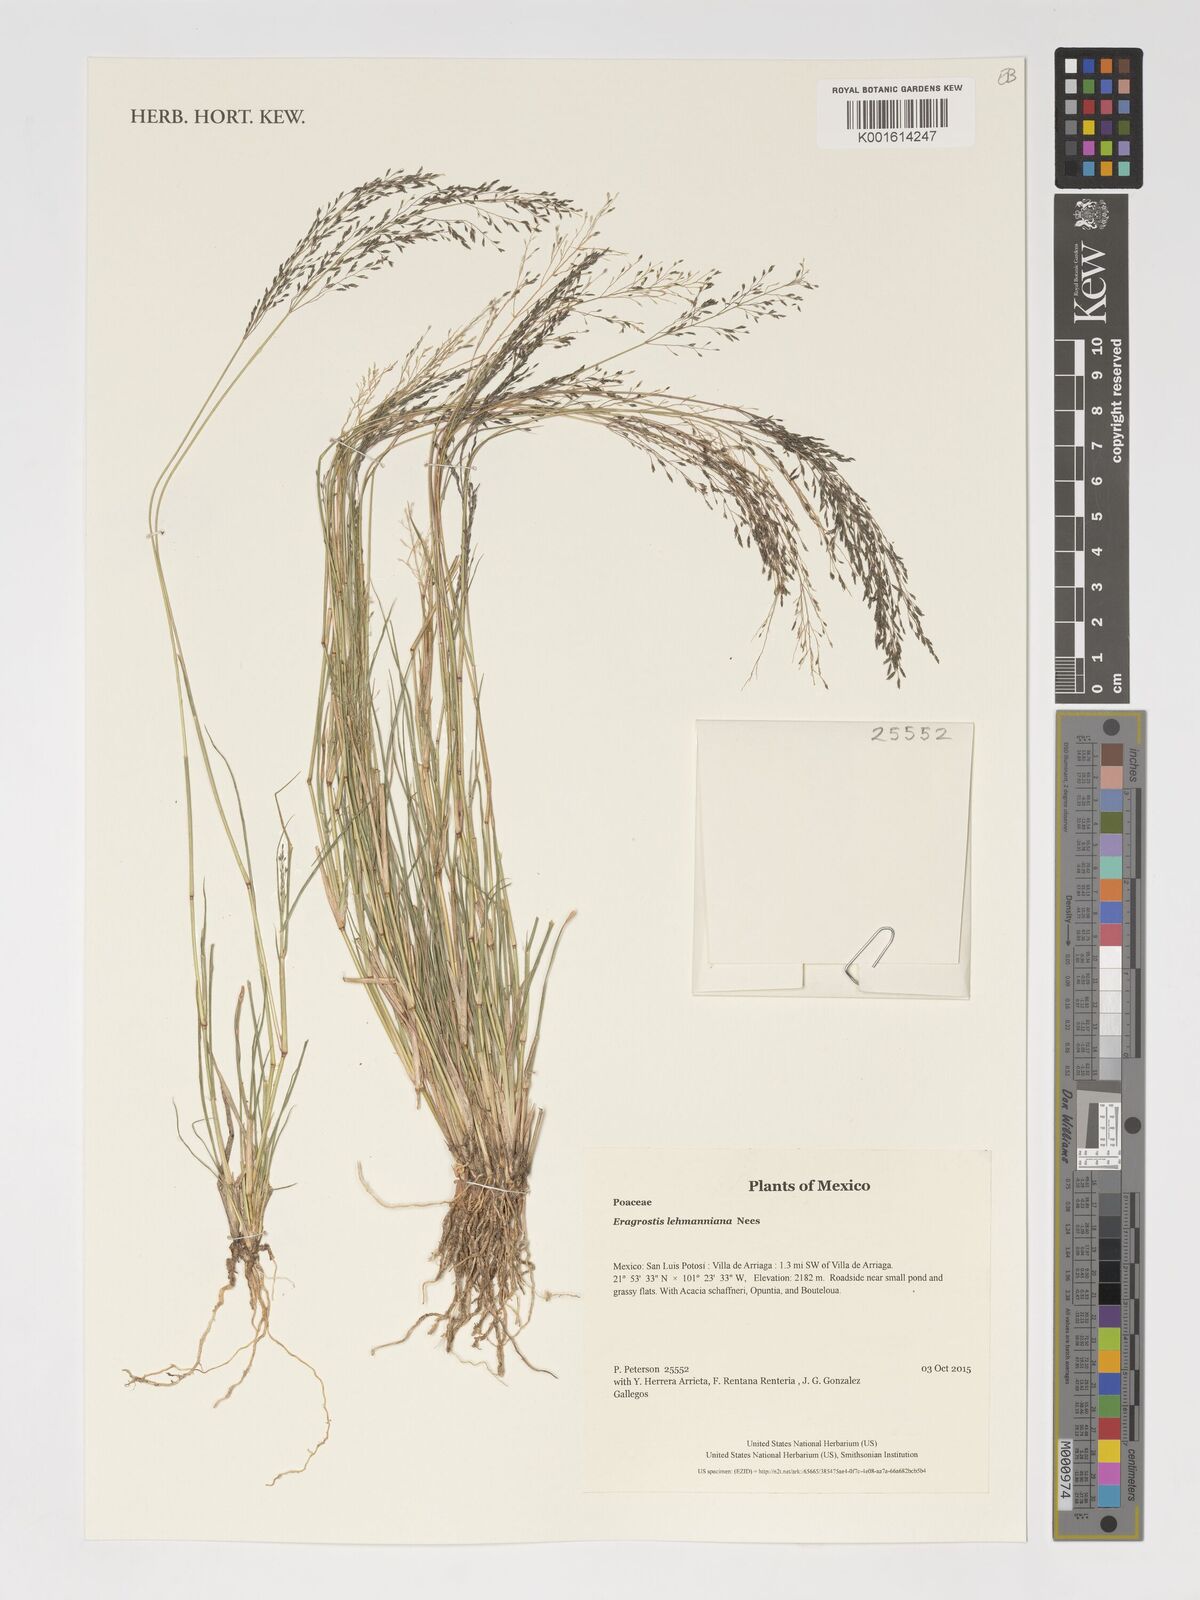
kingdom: Plantae
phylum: Tracheophyta
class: Liliopsida
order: Poales
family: Poaceae
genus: Eragrostis
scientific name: Eragrostis lehmanniana
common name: Lehmann lovegrass
